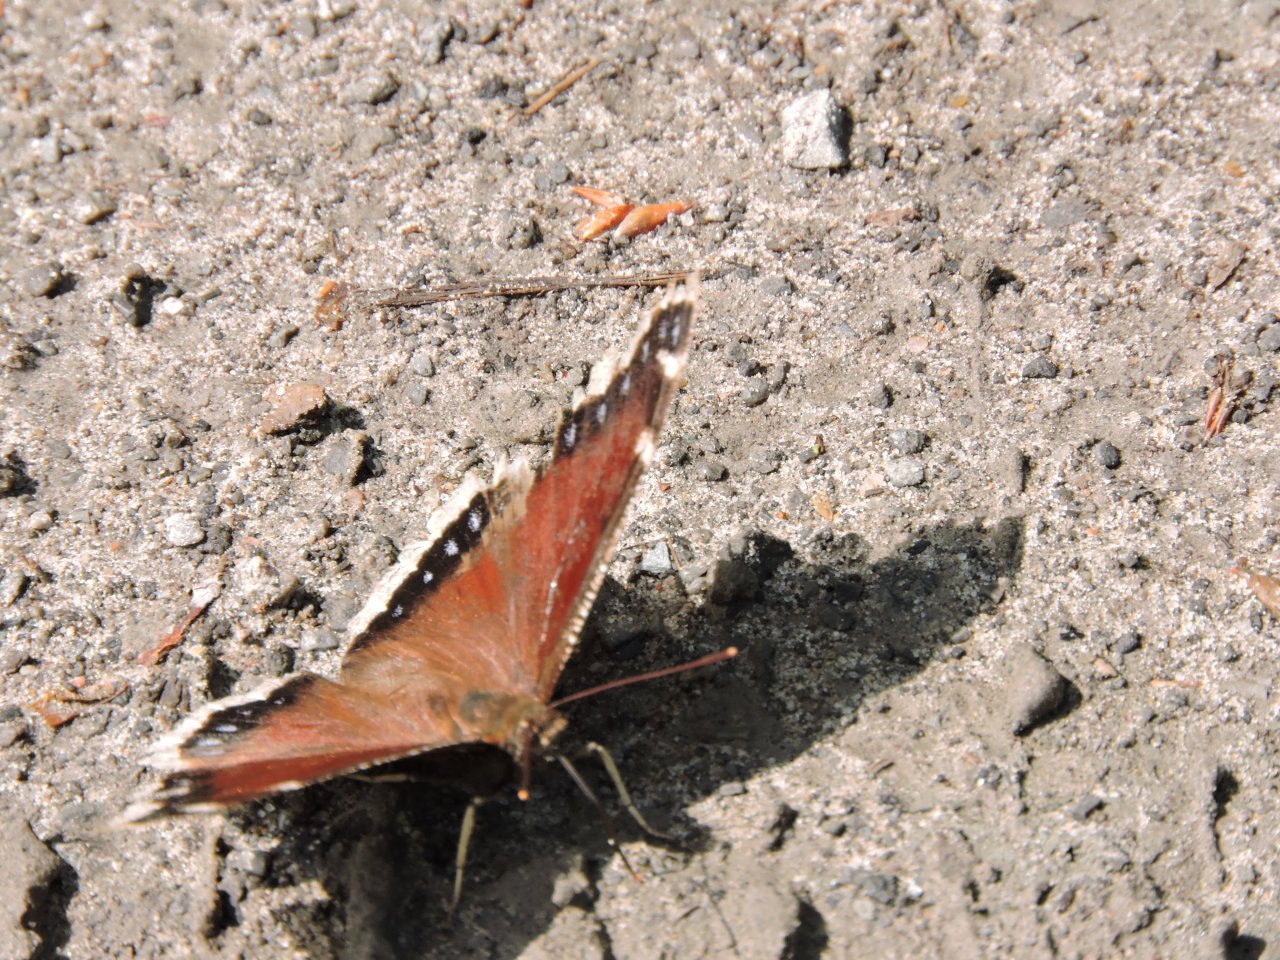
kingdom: Animalia
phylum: Arthropoda
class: Insecta
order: Lepidoptera
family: Nymphalidae
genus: Nymphalis
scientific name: Nymphalis antiopa
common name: Mourning Cloak
